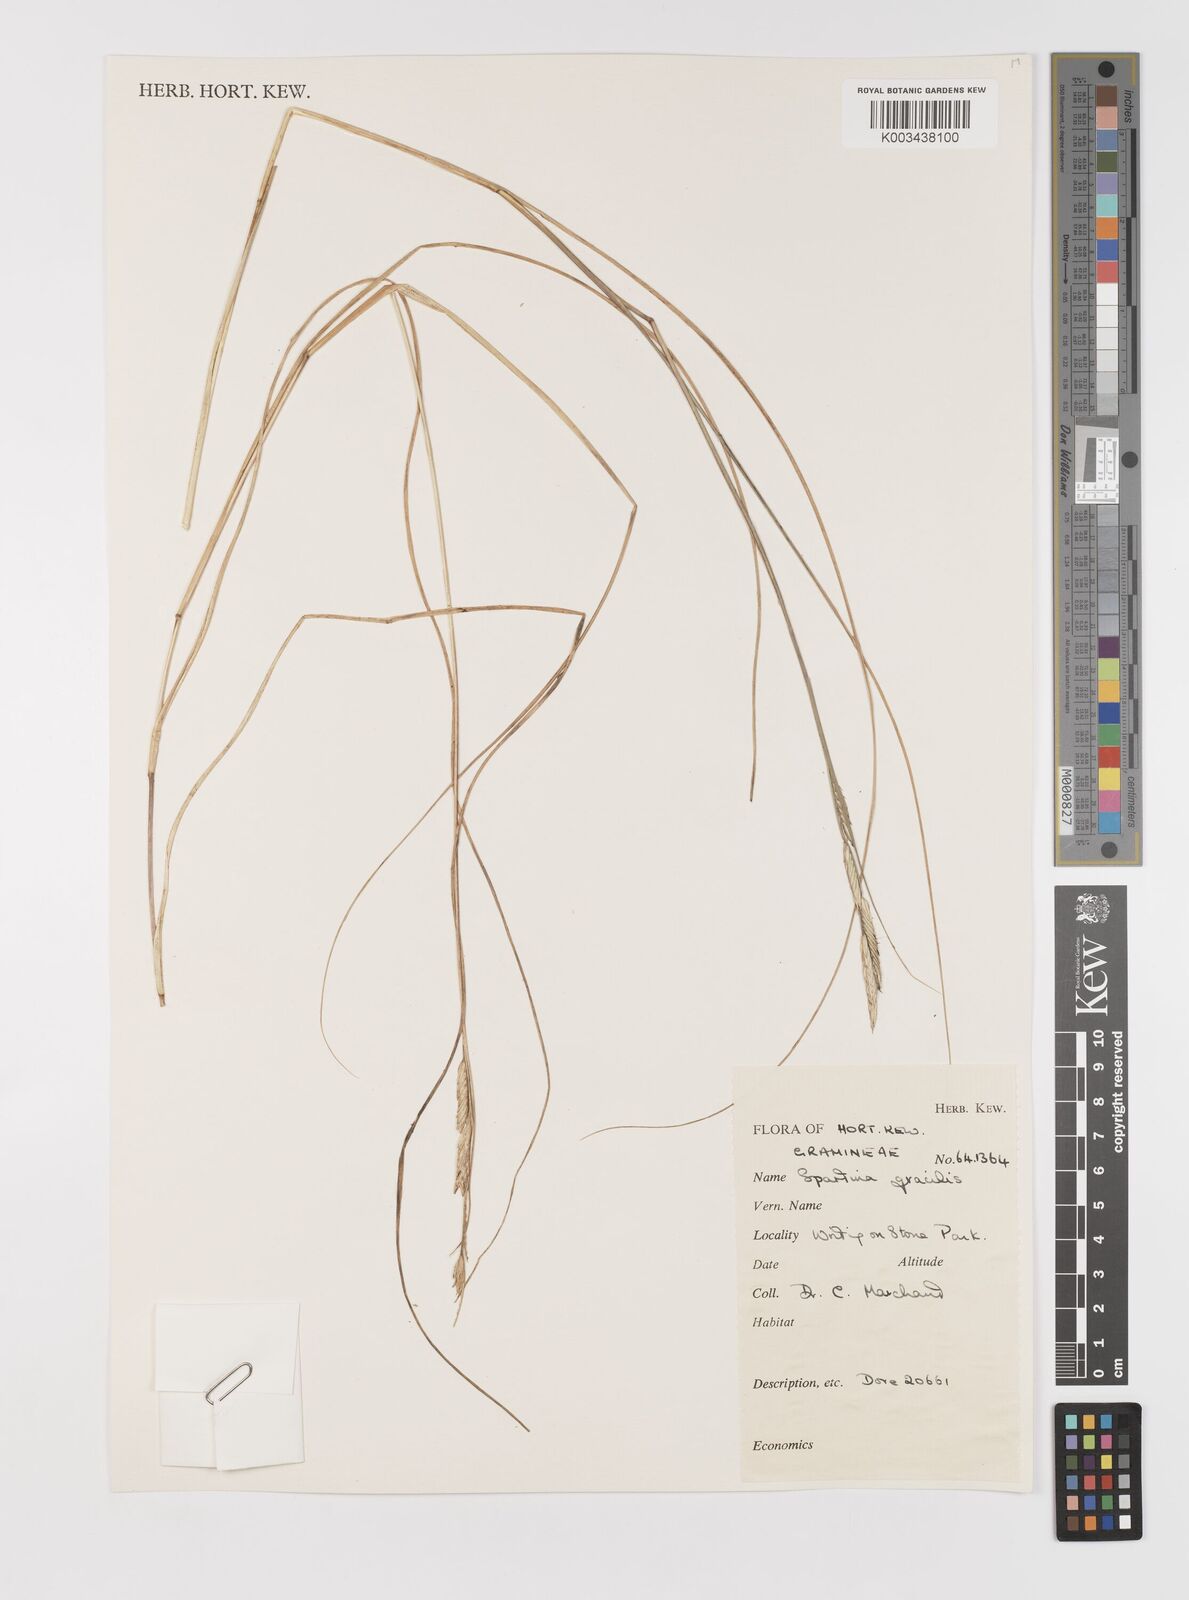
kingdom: Plantae
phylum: Tracheophyta
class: Liliopsida
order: Poales
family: Poaceae
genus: Sporobolus
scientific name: Sporobolus hookerianus
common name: Alkali cordgrass
